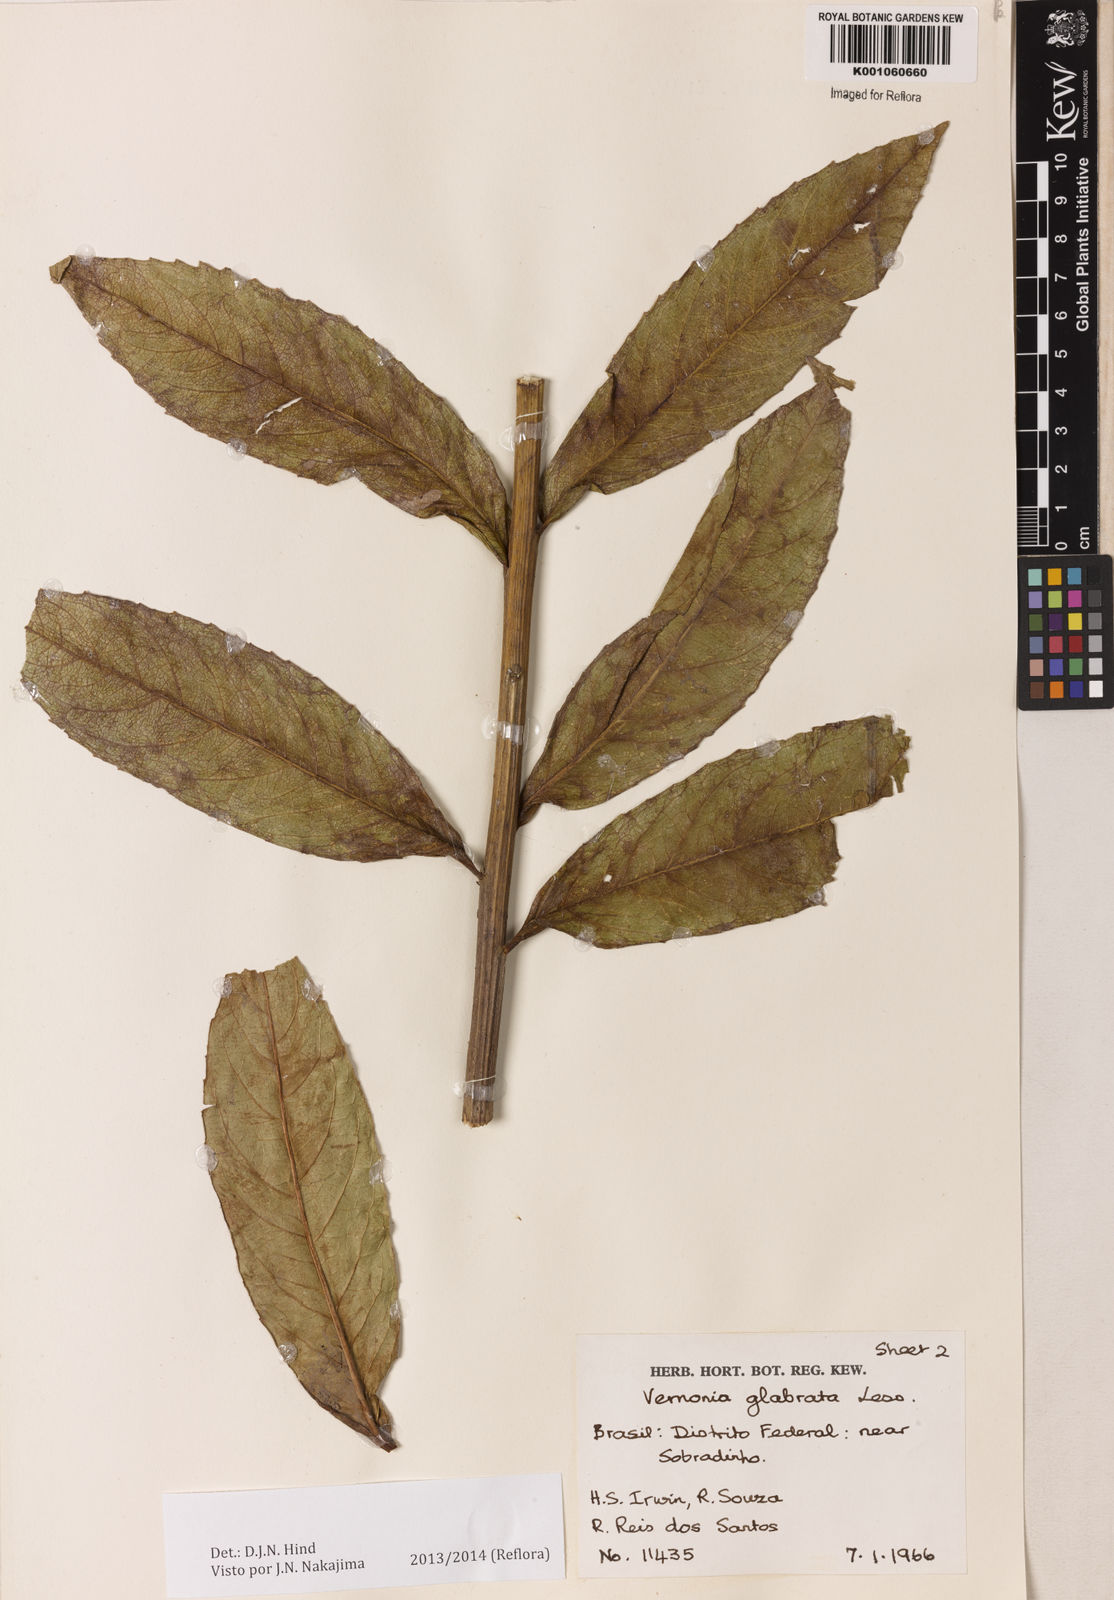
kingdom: Plantae
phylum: Tracheophyta
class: Magnoliopsida
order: Asterales
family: Asteraceae
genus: Lessingianthus
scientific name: Lessingianthus glabratus
